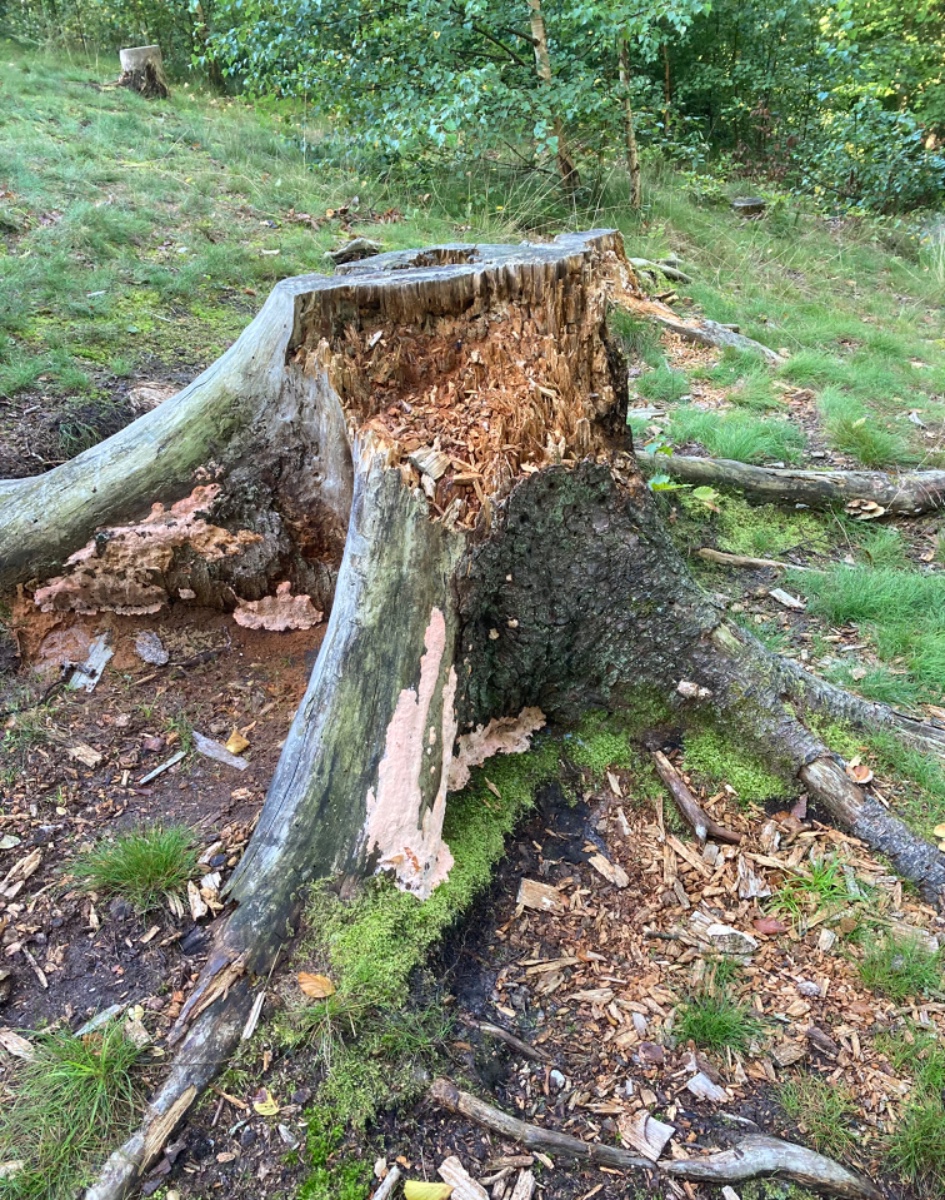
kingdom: Fungi
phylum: Basidiomycota
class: Agaricomycetes
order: Polyporales
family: Polyporaceae
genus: Rhodonia
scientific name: Rhodonia placenta
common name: rosaporesvamp
